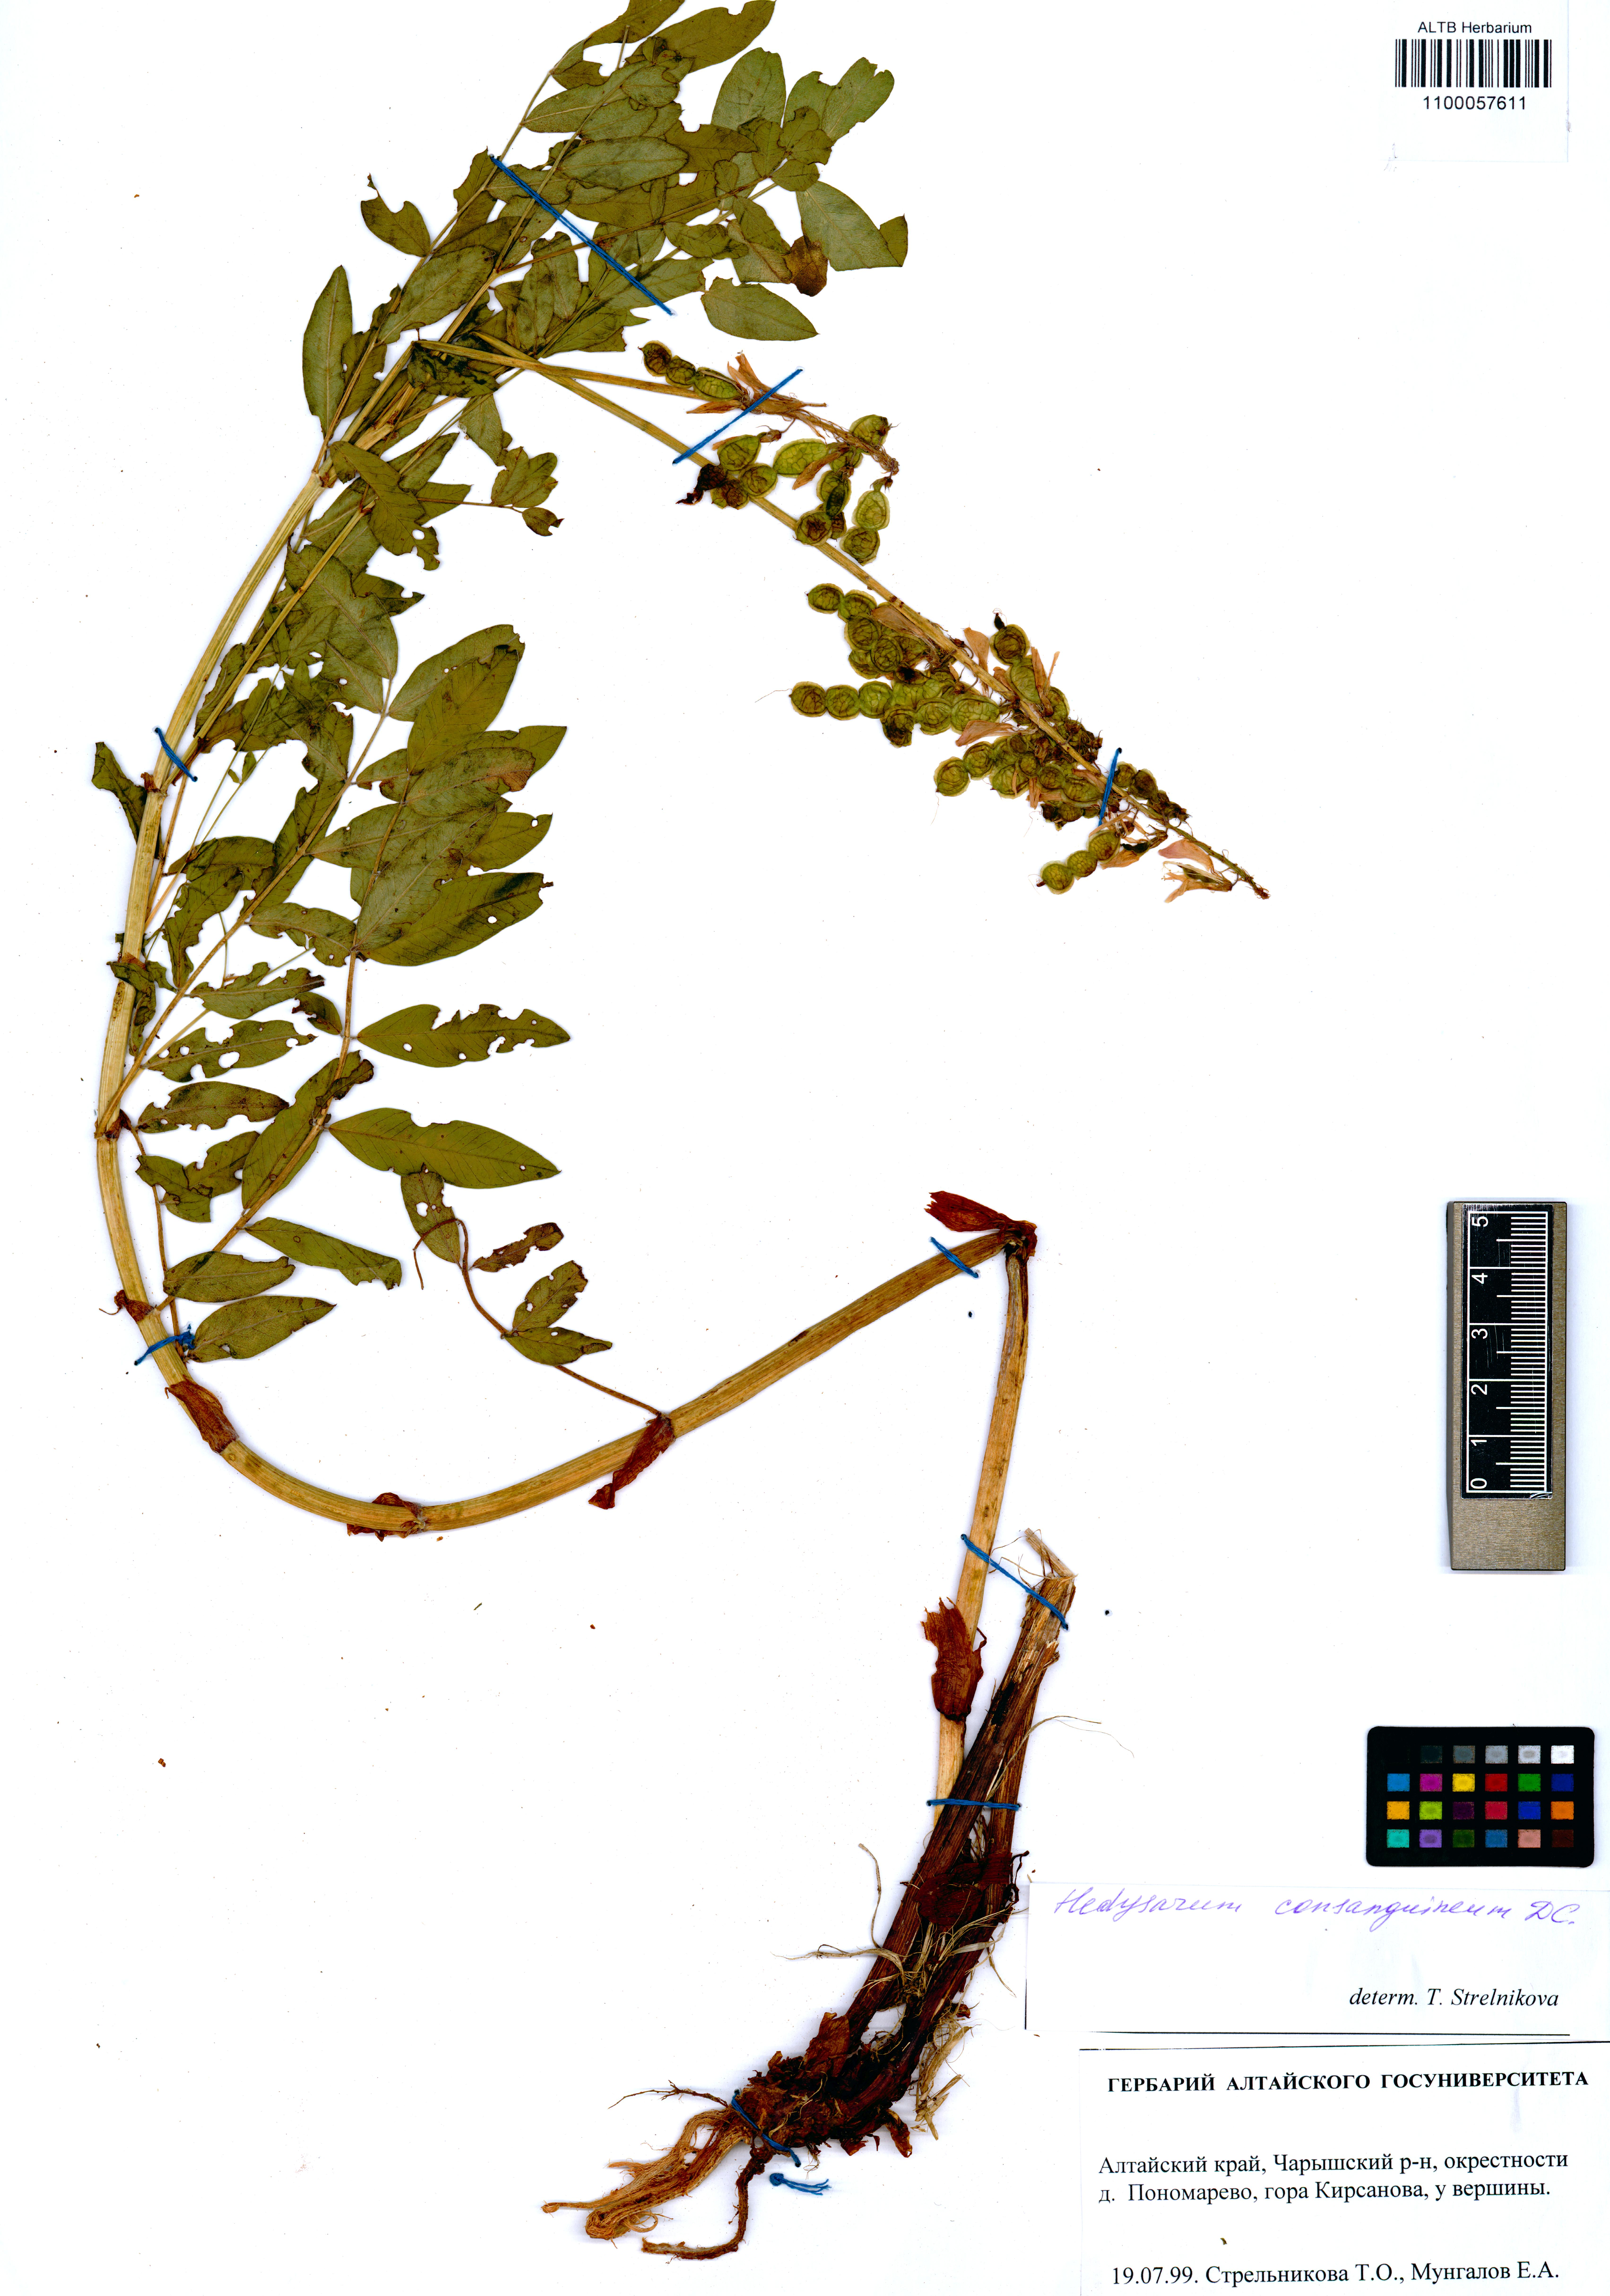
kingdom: Plantae
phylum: Tracheophyta
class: Magnoliopsida
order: Fabales
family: Fabaceae
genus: Hedysarum
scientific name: Hedysarum consanguineum
